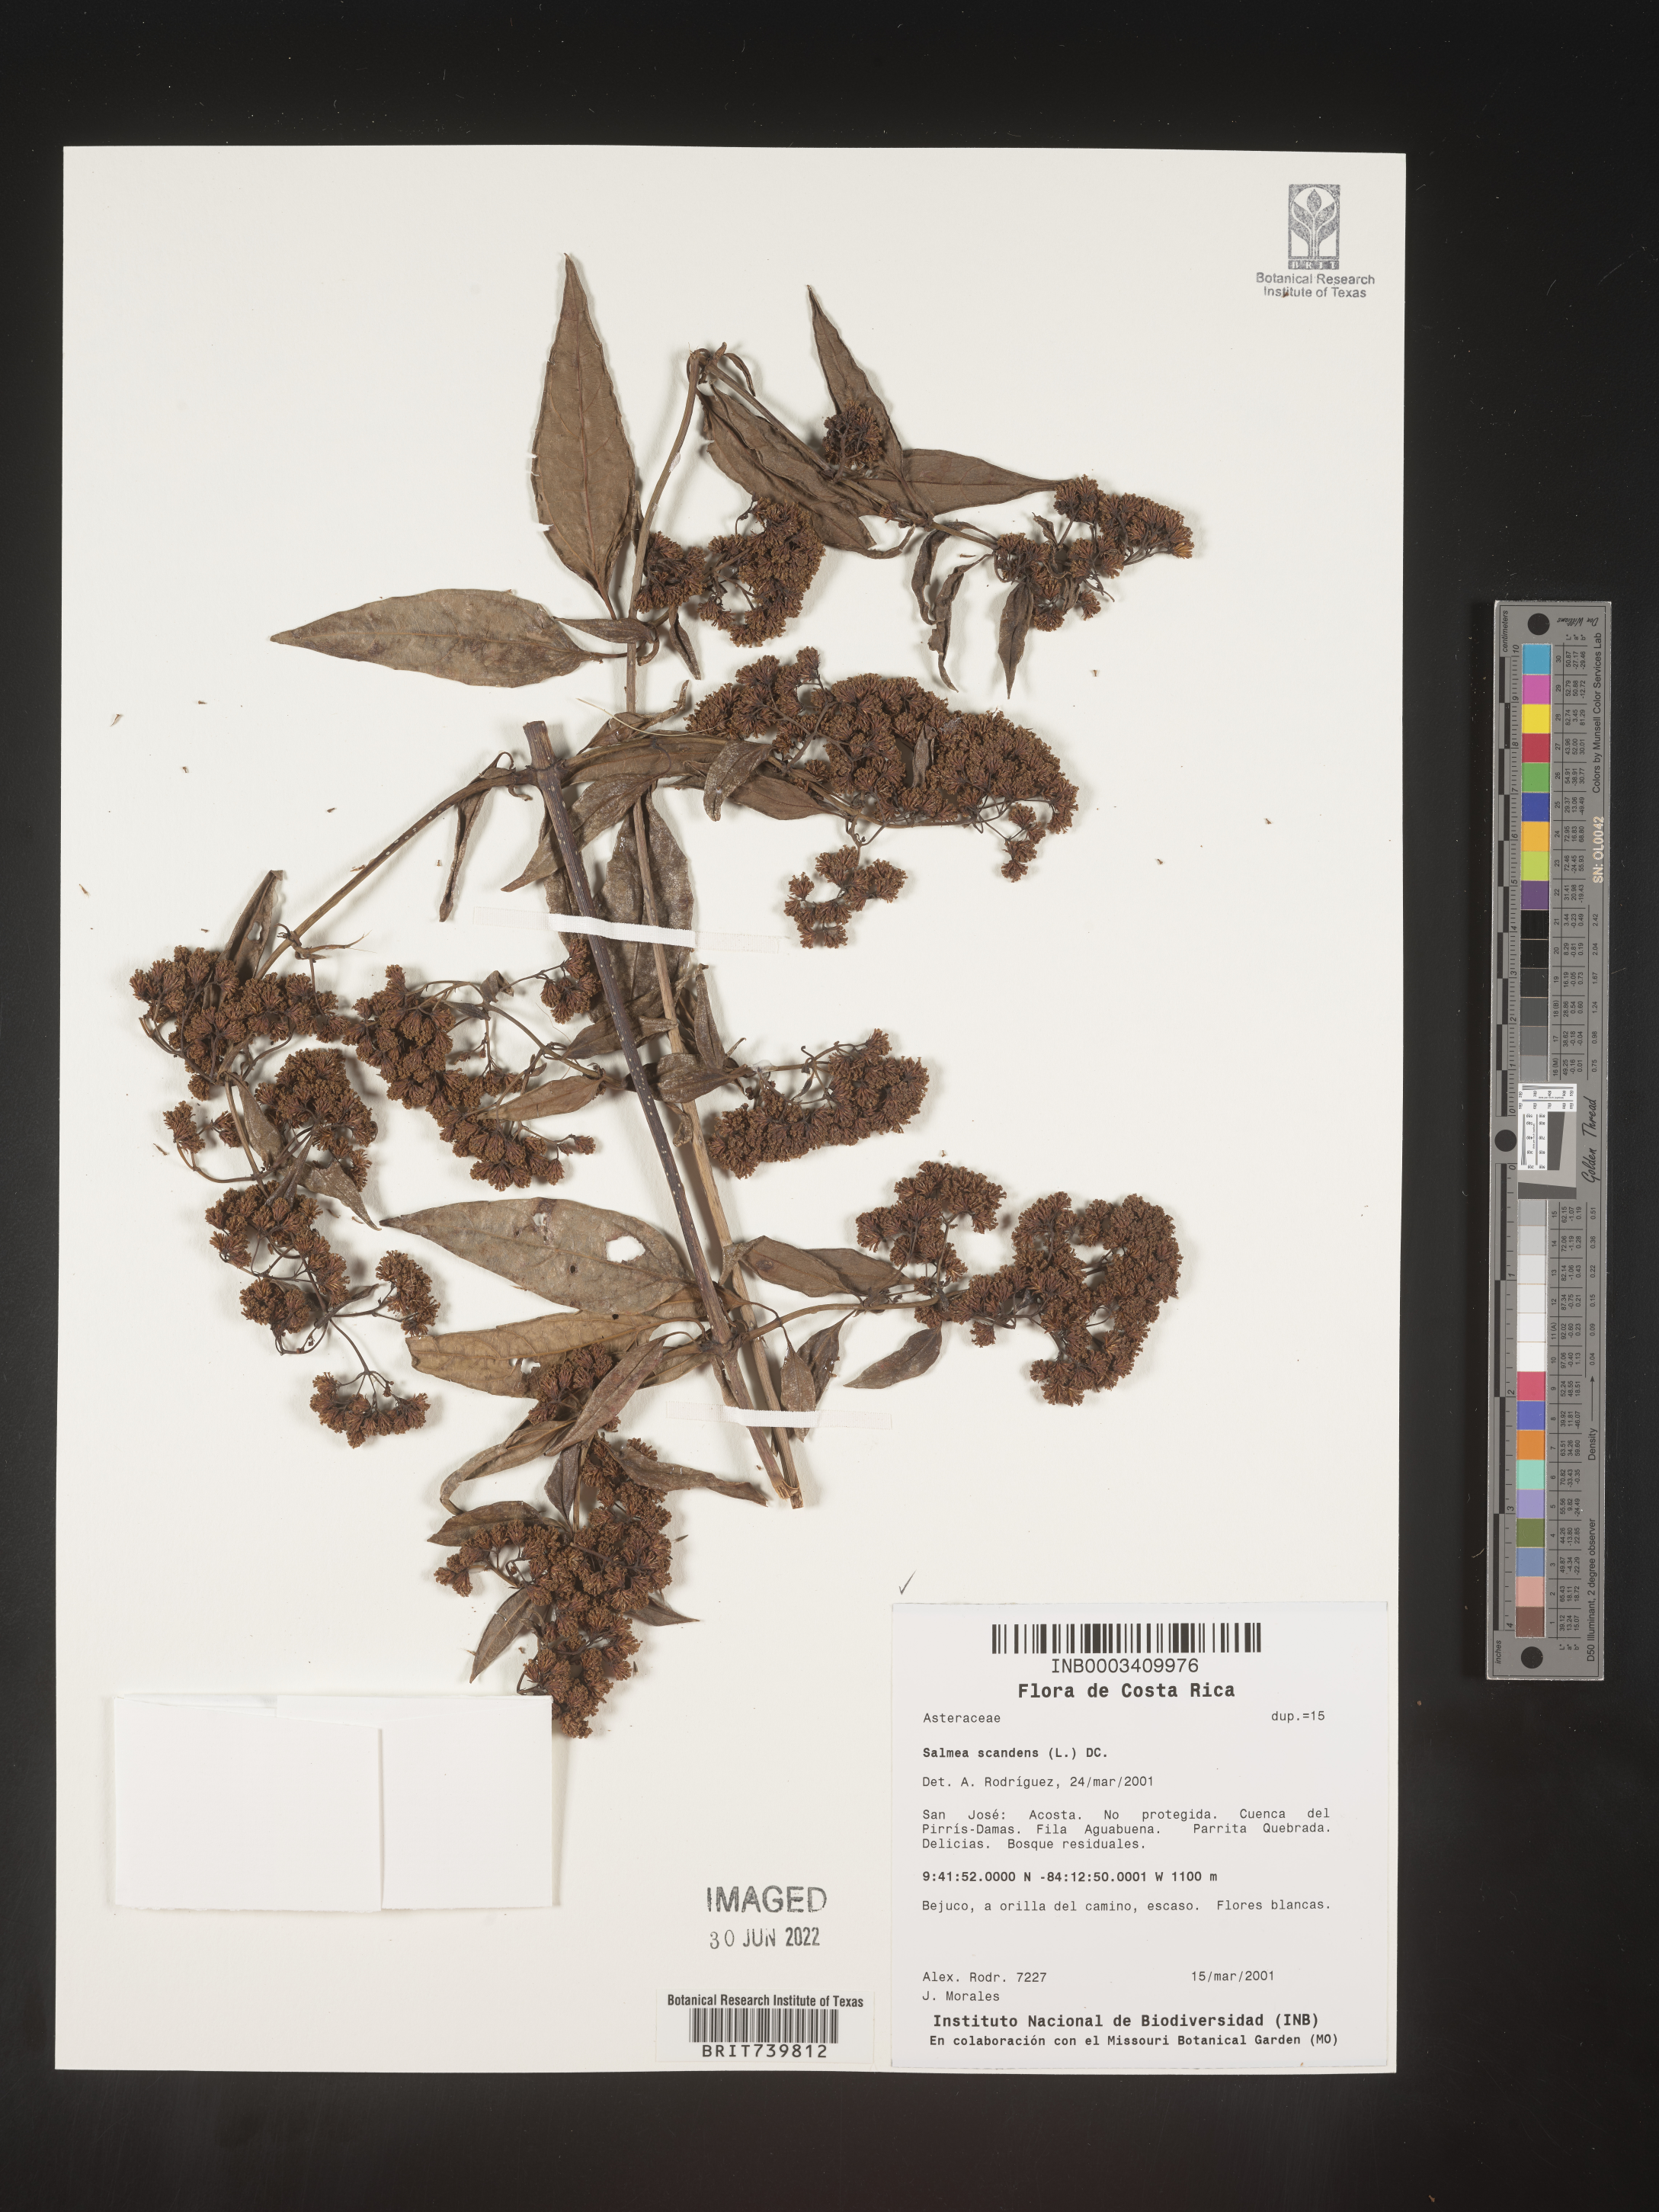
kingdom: Plantae
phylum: Tracheophyta
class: Magnoliopsida
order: Asterales
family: Asteraceae
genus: Salmea
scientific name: Salmea
